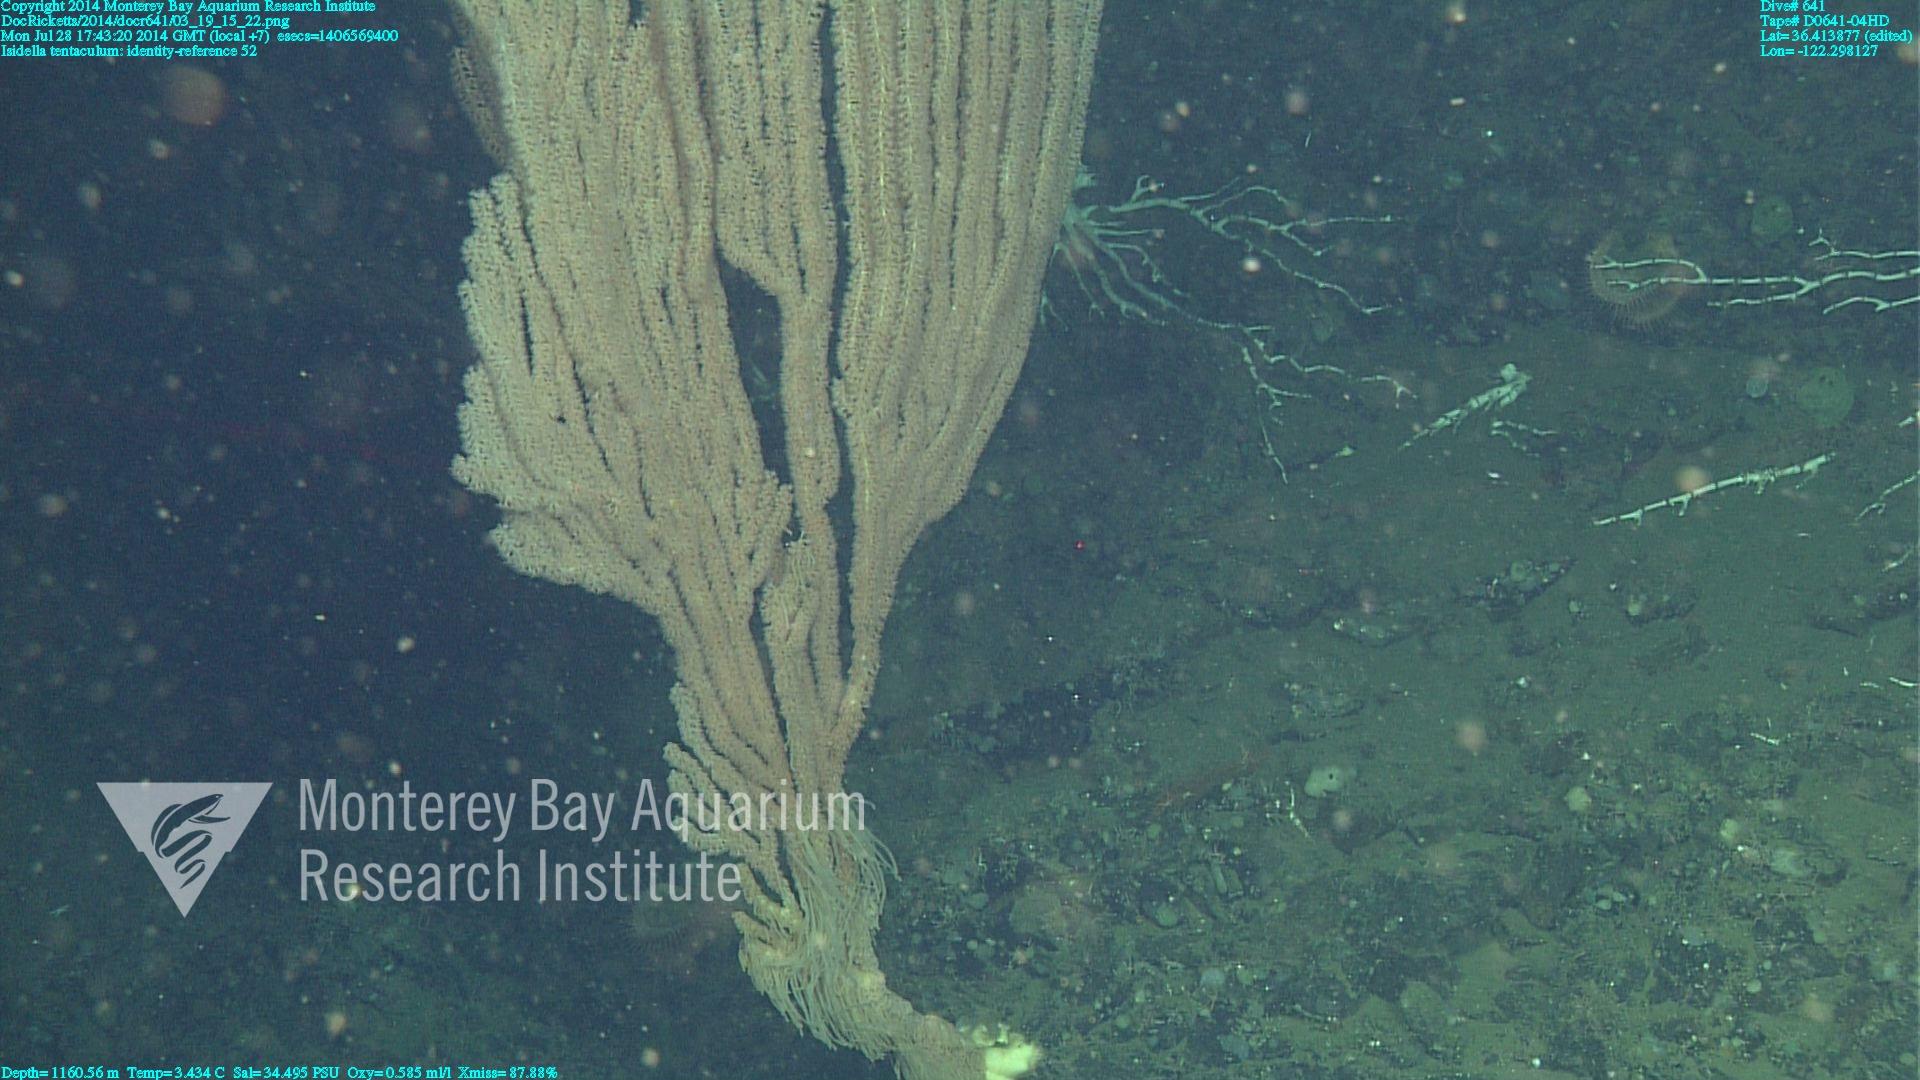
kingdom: Animalia
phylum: Cnidaria
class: Anthozoa
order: Scleralcyonacea
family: Keratoisididae
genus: Isidella
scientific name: Isidella tentaculum
